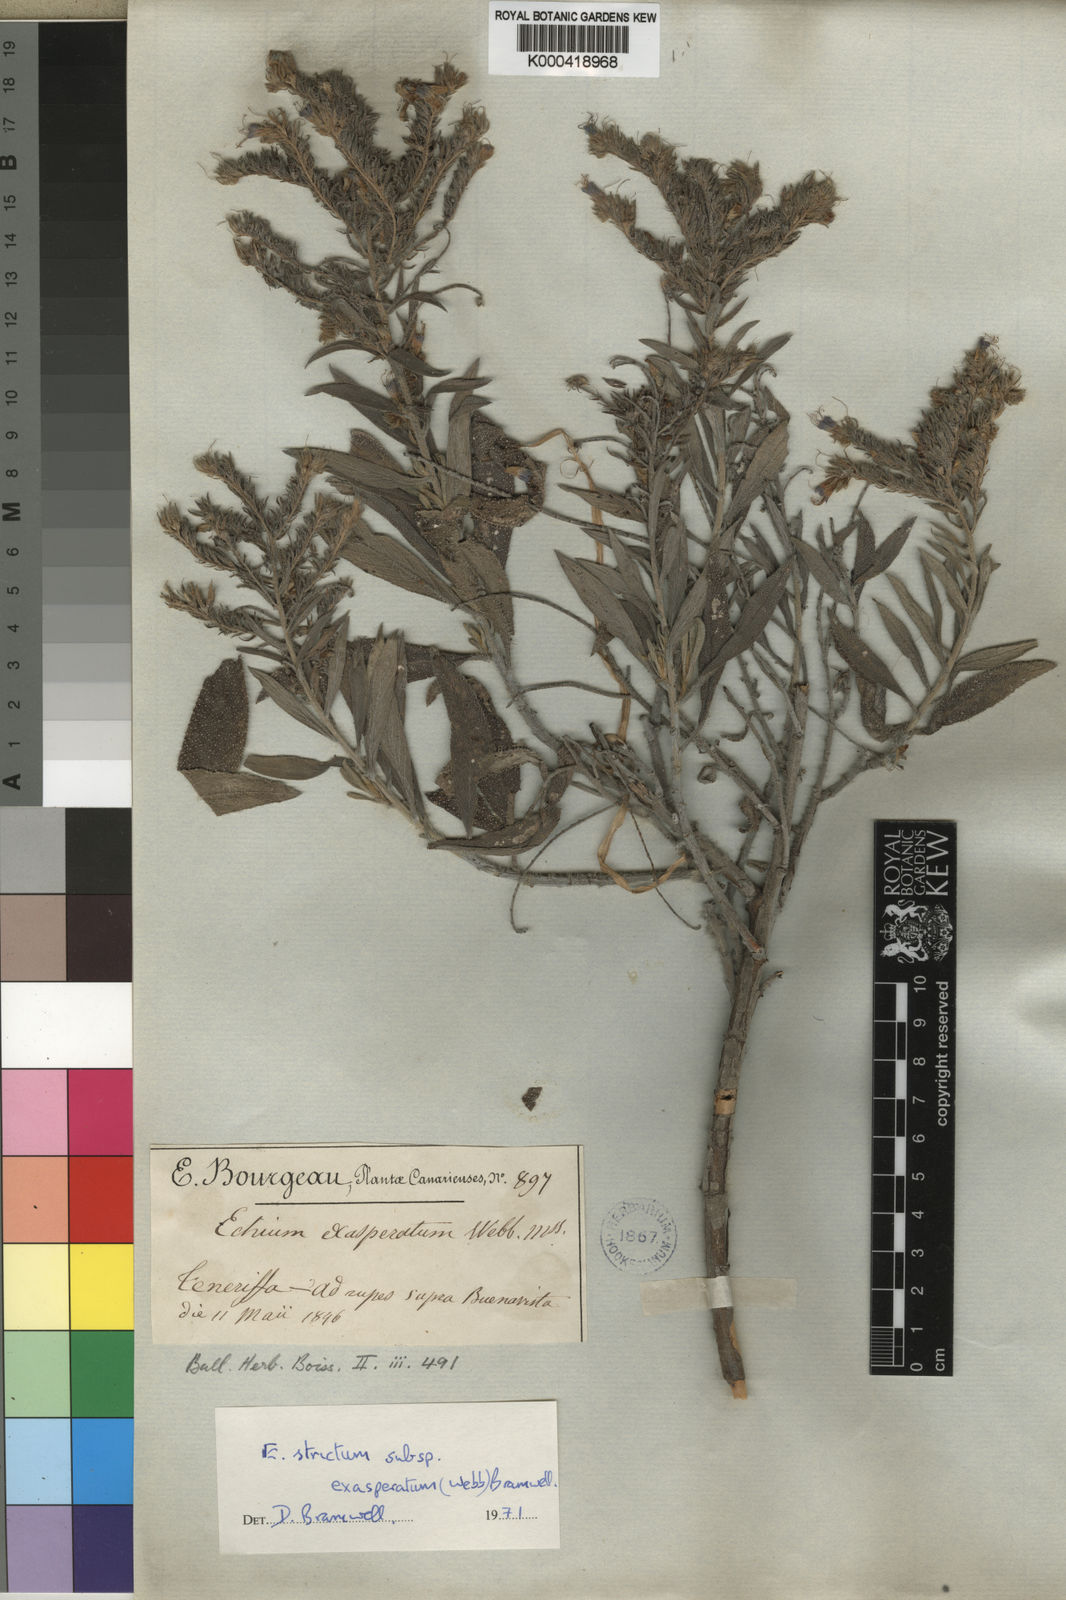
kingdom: Plantae
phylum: Tracheophyta
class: Magnoliopsida
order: Boraginales
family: Boraginaceae
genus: Echium
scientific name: Echium strictum
